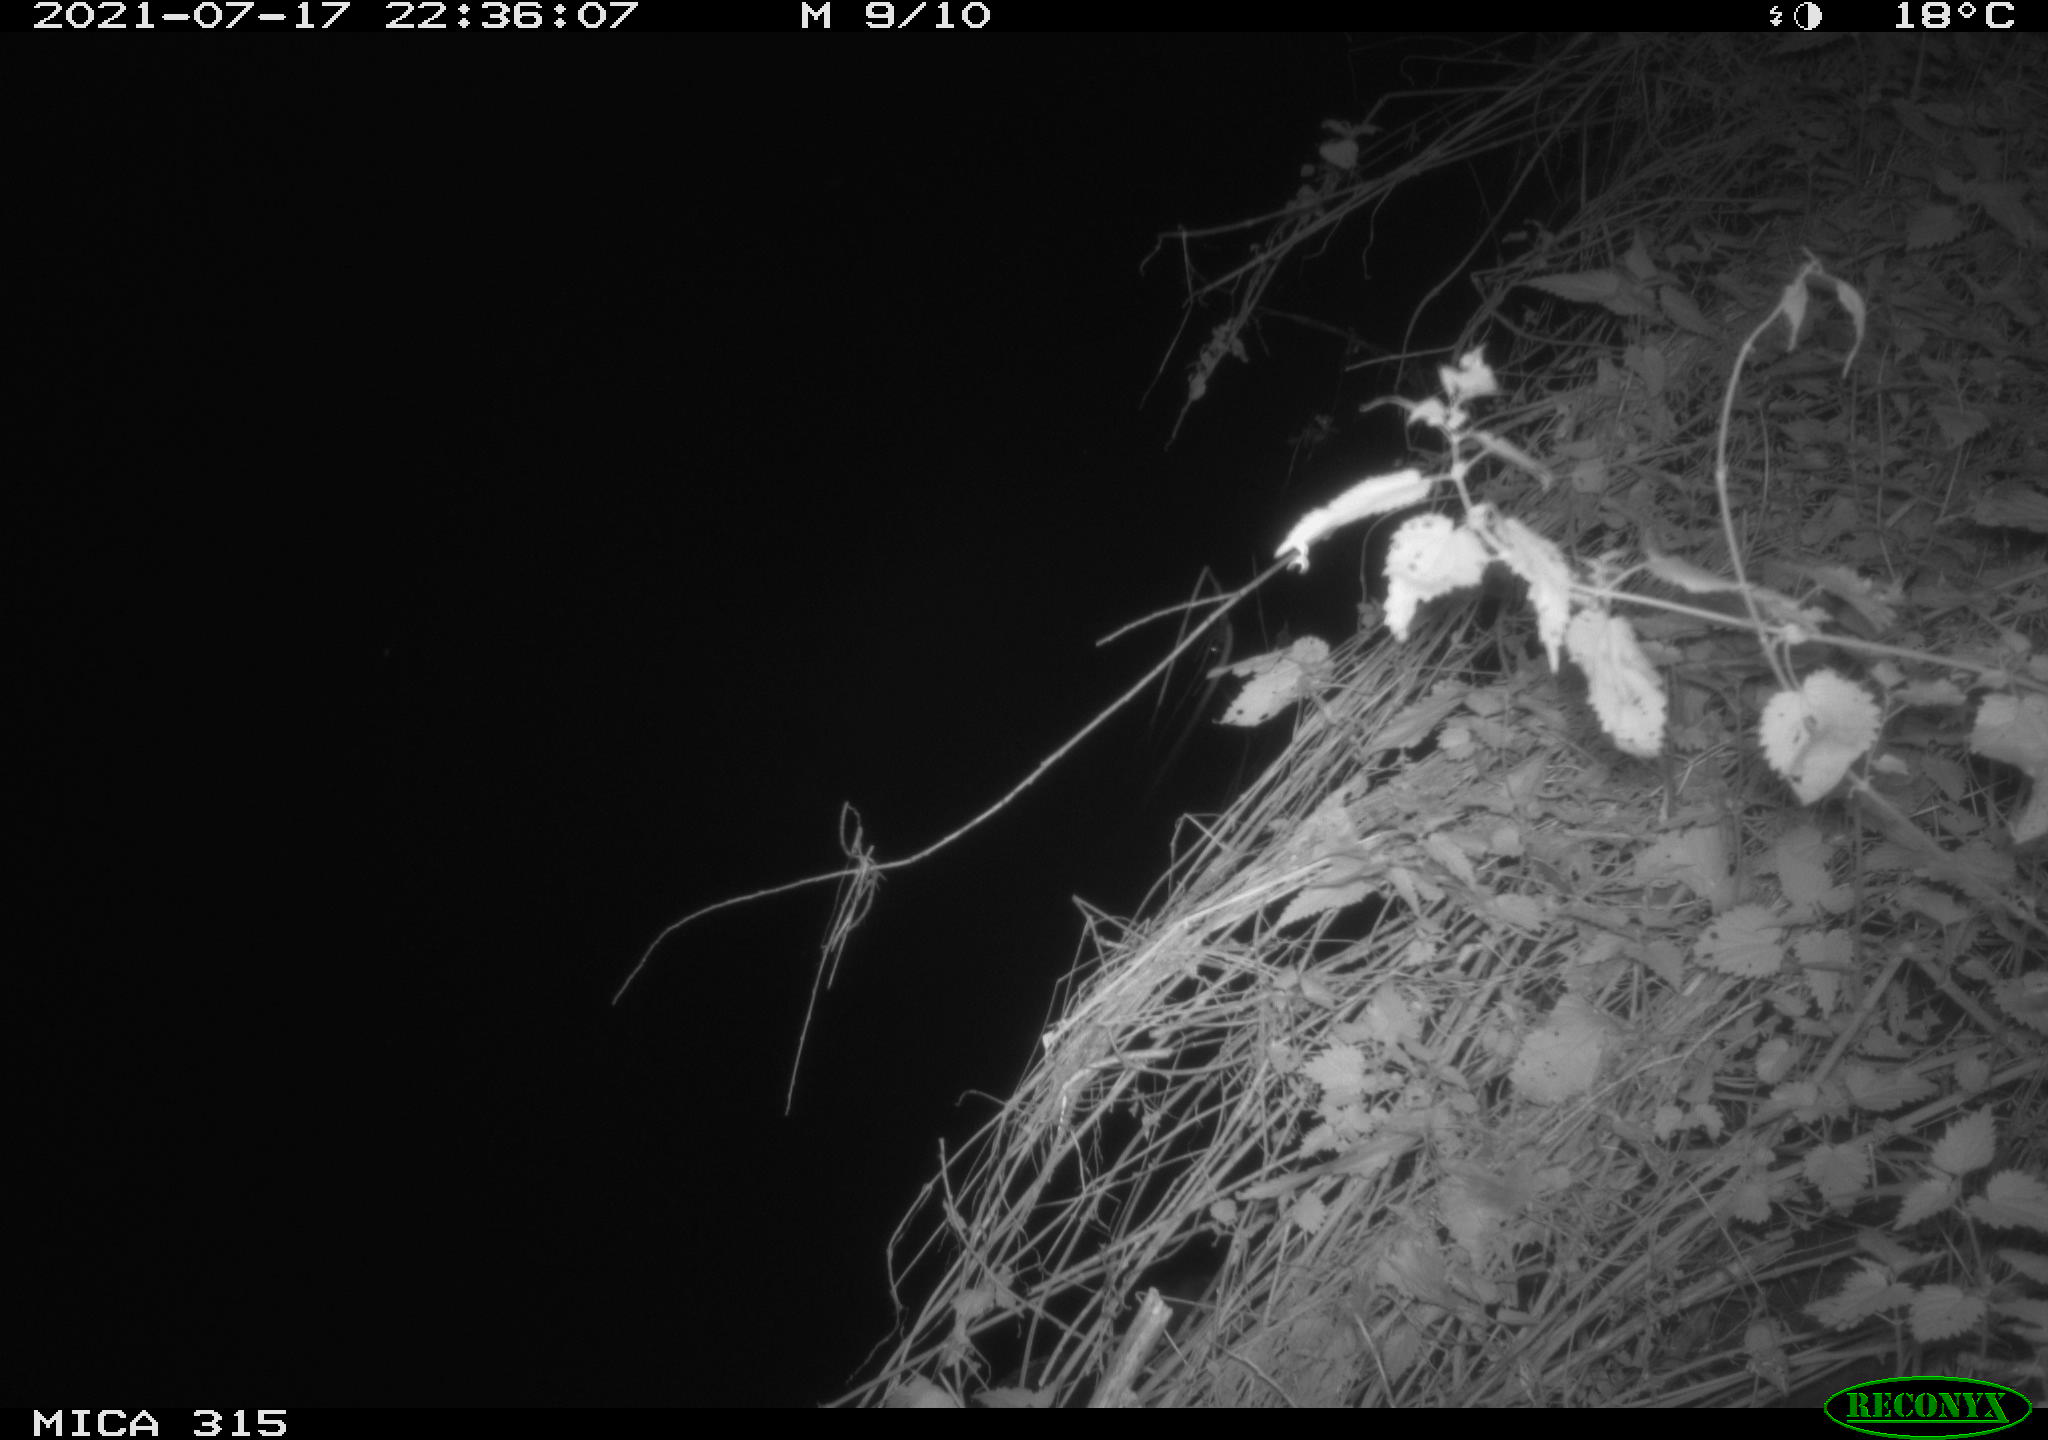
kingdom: Animalia
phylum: Chordata
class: Aves
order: Anseriformes
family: Anatidae
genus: Anas
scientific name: Anas platyrhynchos
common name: Mallard
